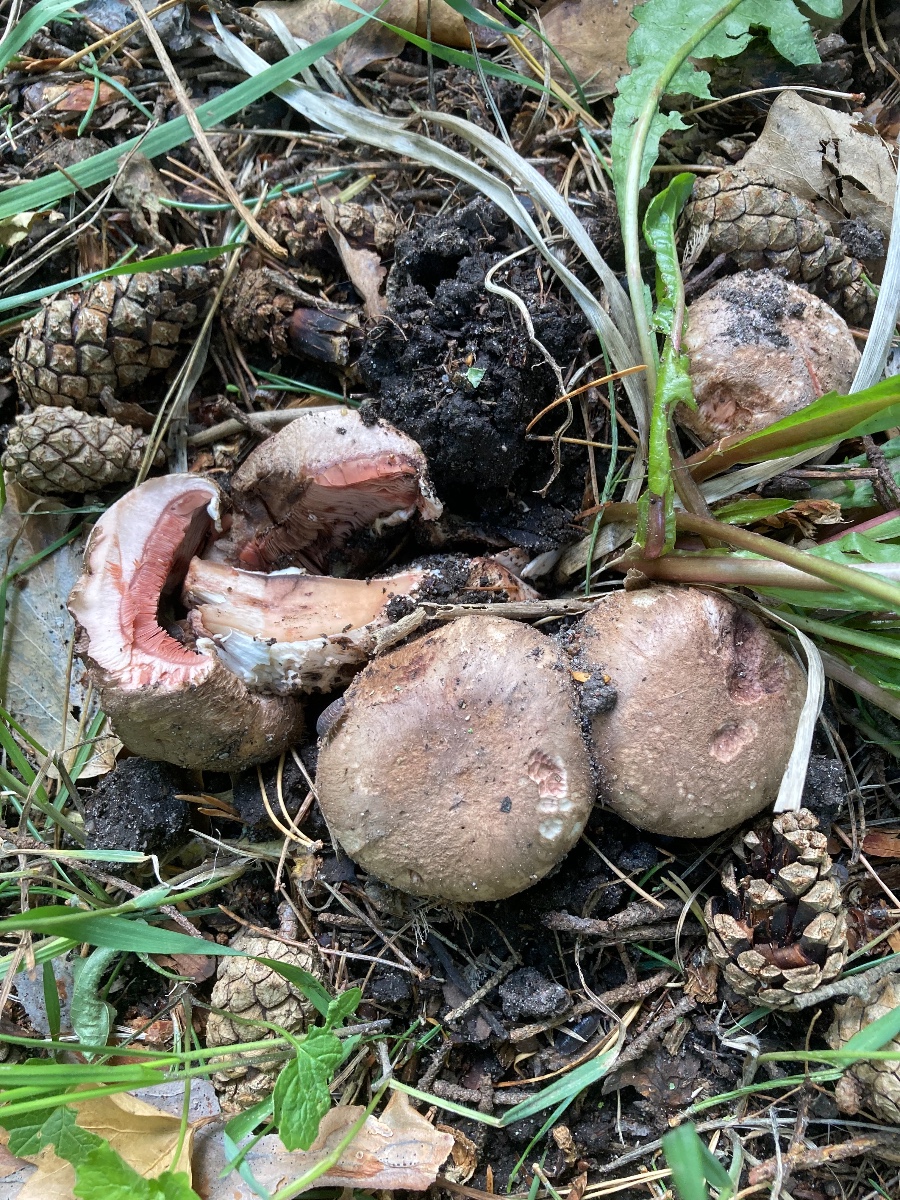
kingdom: Fungi
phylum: Basidiomycota
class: Agaricomycetes
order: Agaricales
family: Agaricaceae
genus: Agaricus
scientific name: Agaricus coniferarum
